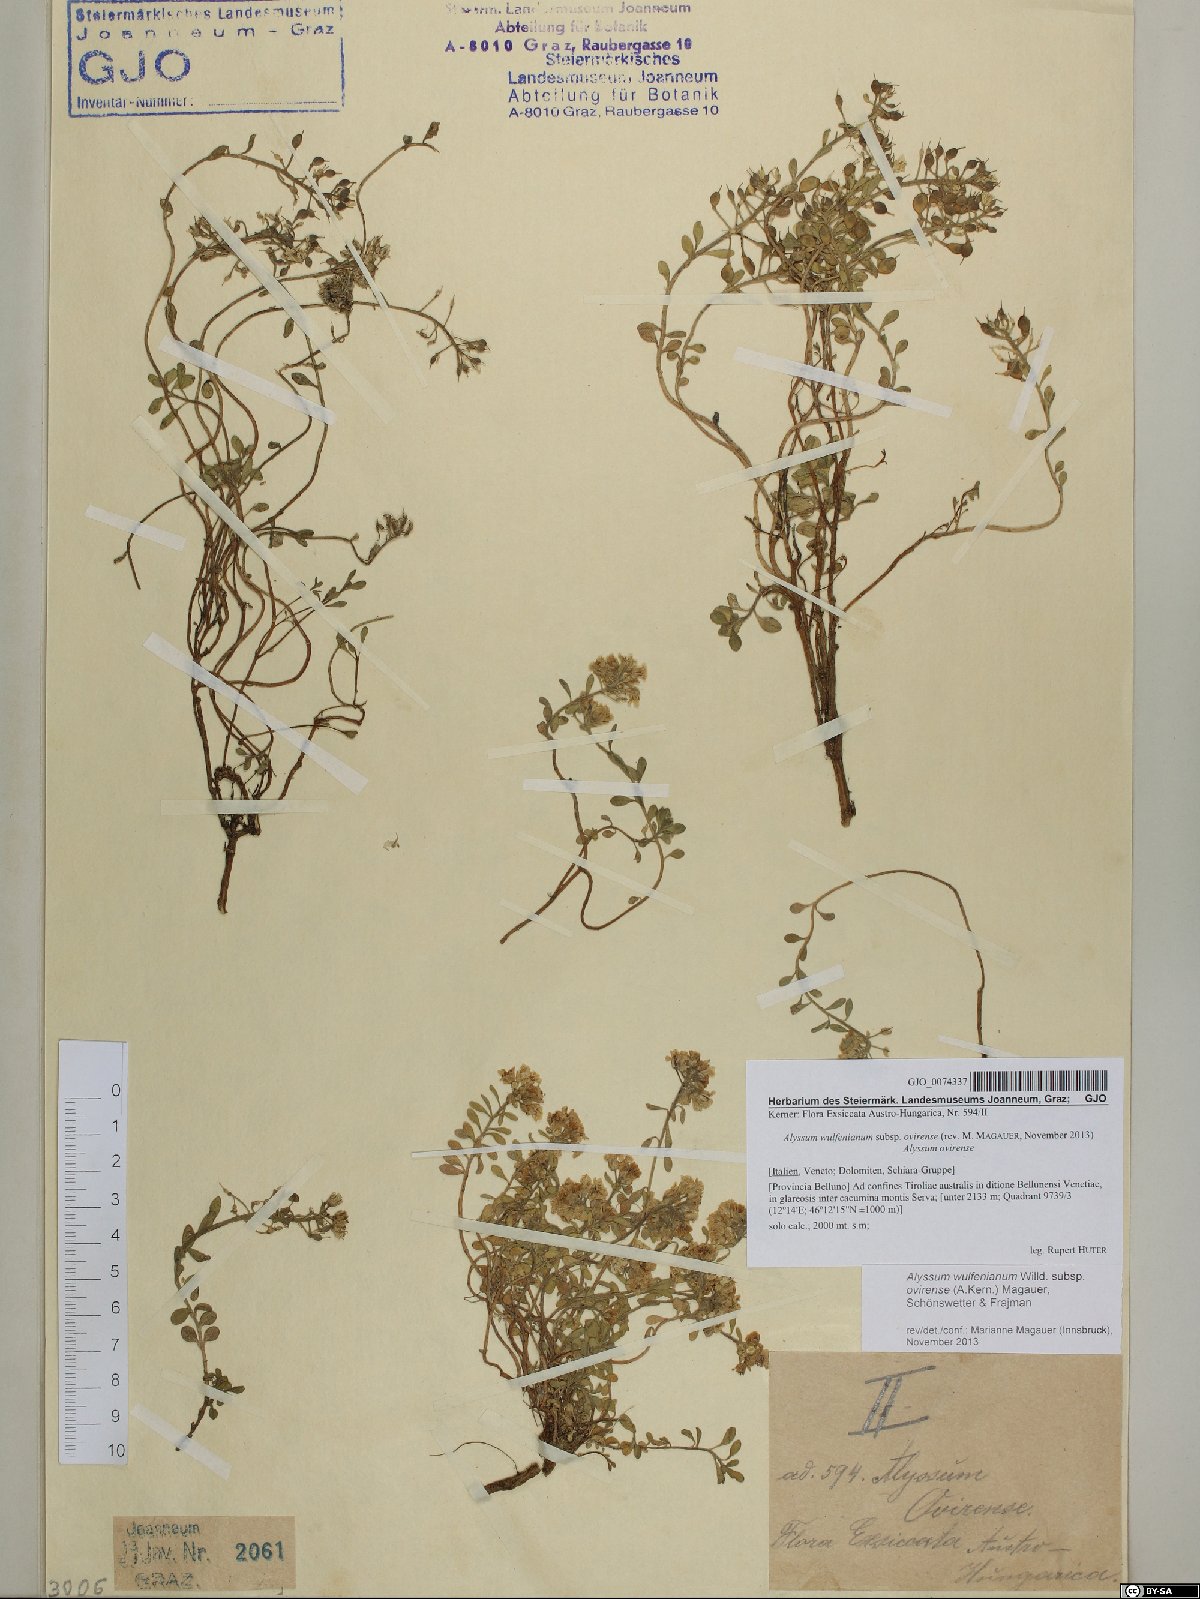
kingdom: Plantae
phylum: Tracheophyta
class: Magnoliopsida
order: Brassicales
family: Brassicaceae
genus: Alyssum
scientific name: Alyssum wulfenianum
